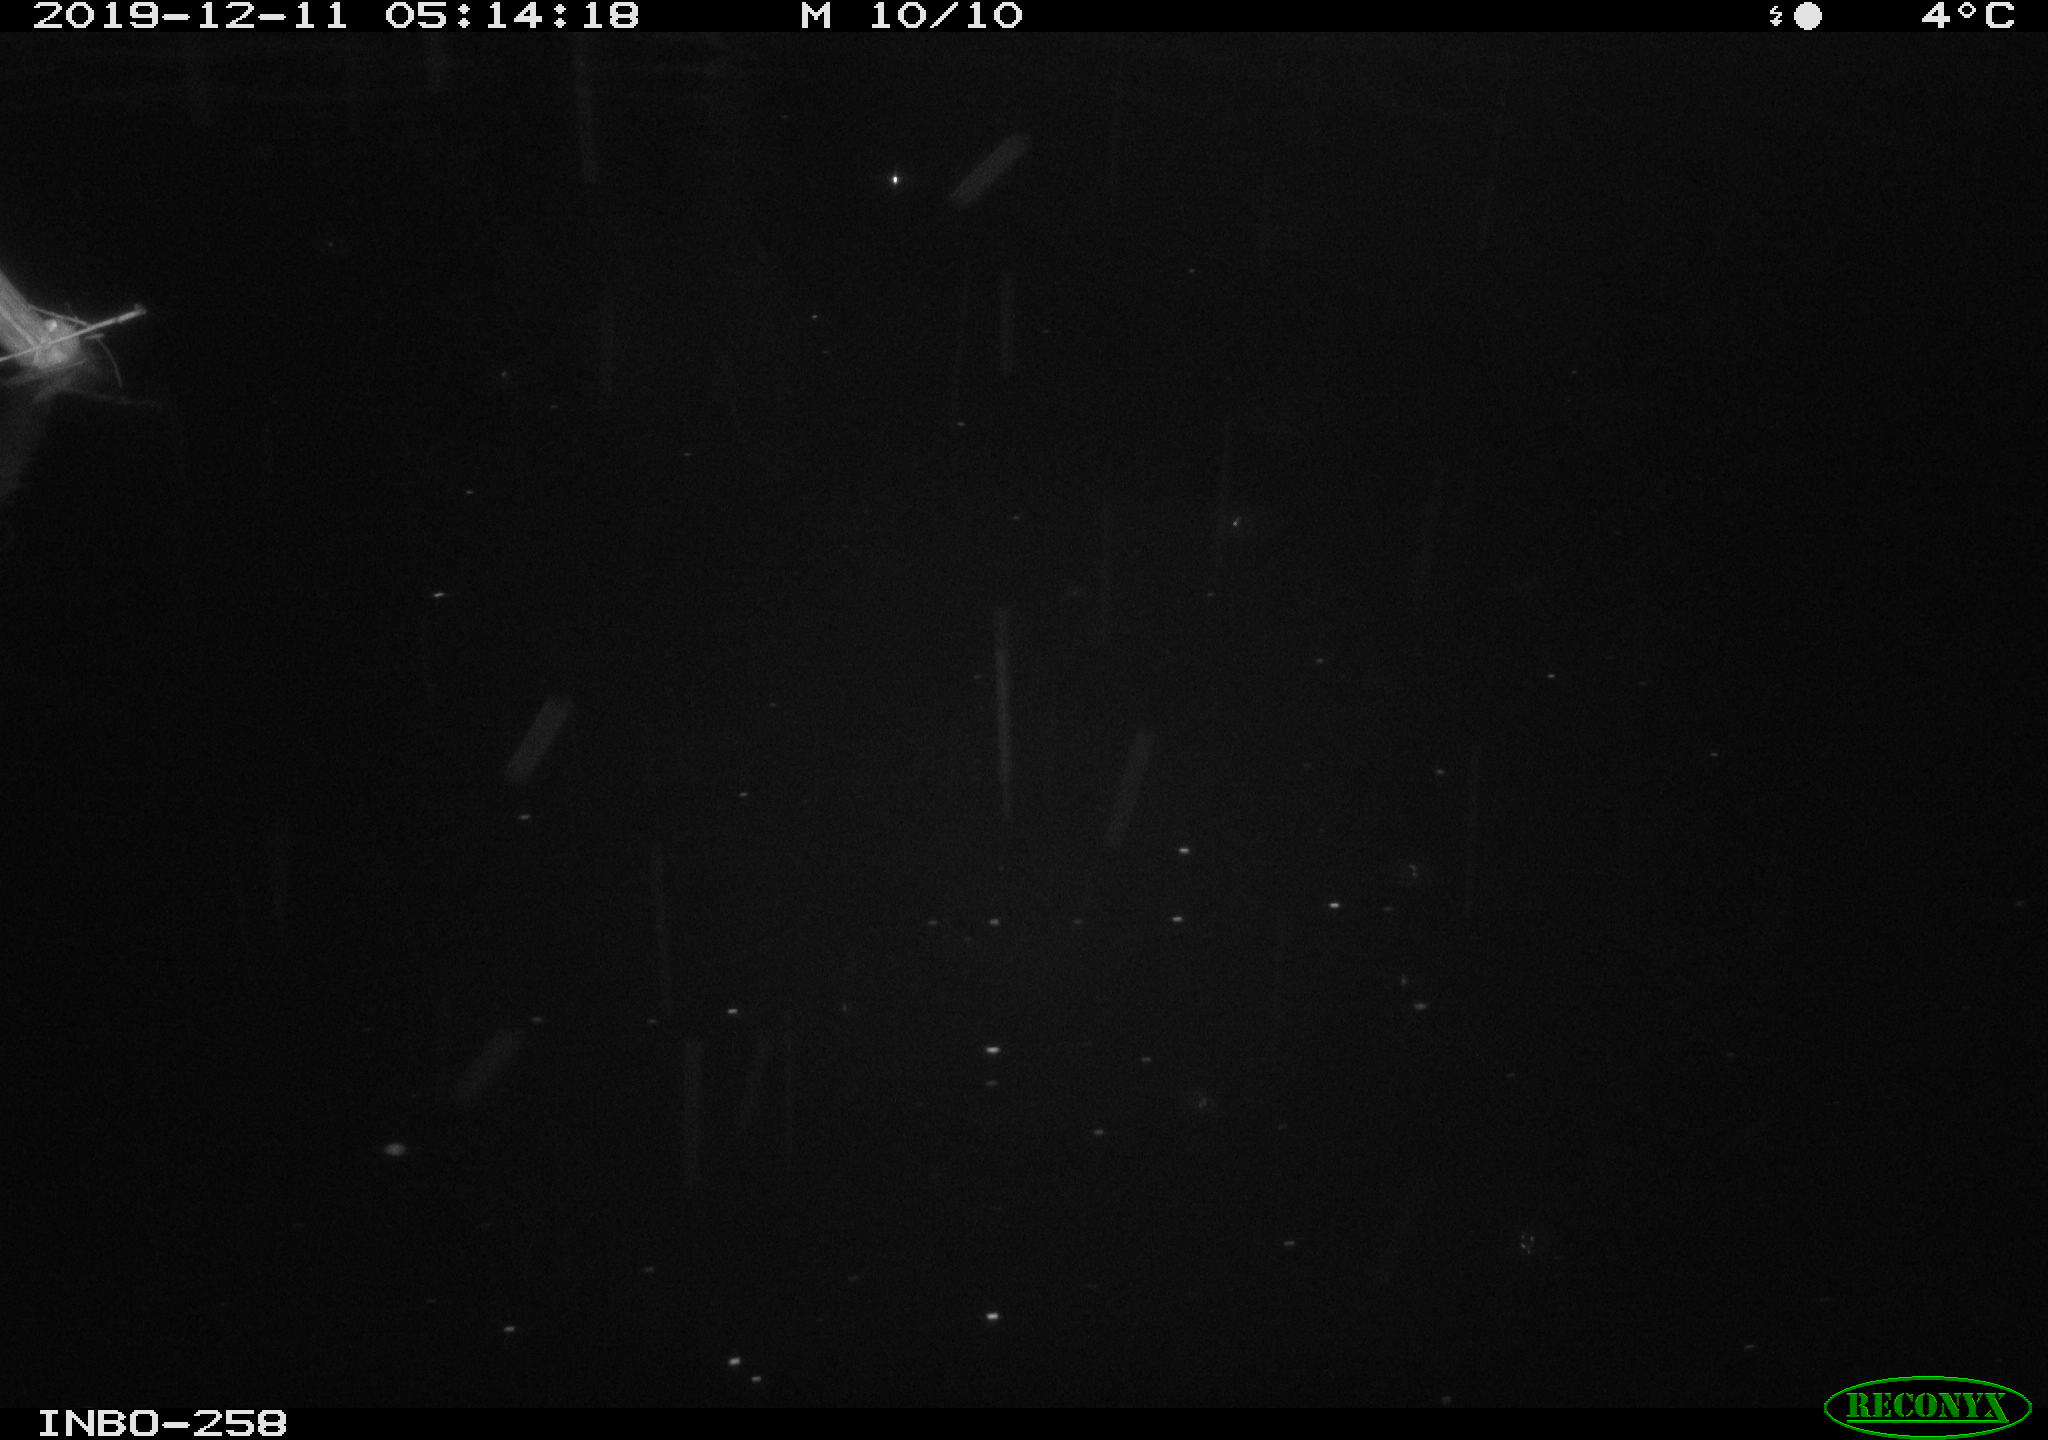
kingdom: Animalia
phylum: Chordata
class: Aves
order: Anseriformes
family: Anatidae
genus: Anas
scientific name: Anas platyrhynchos
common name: Mallard
